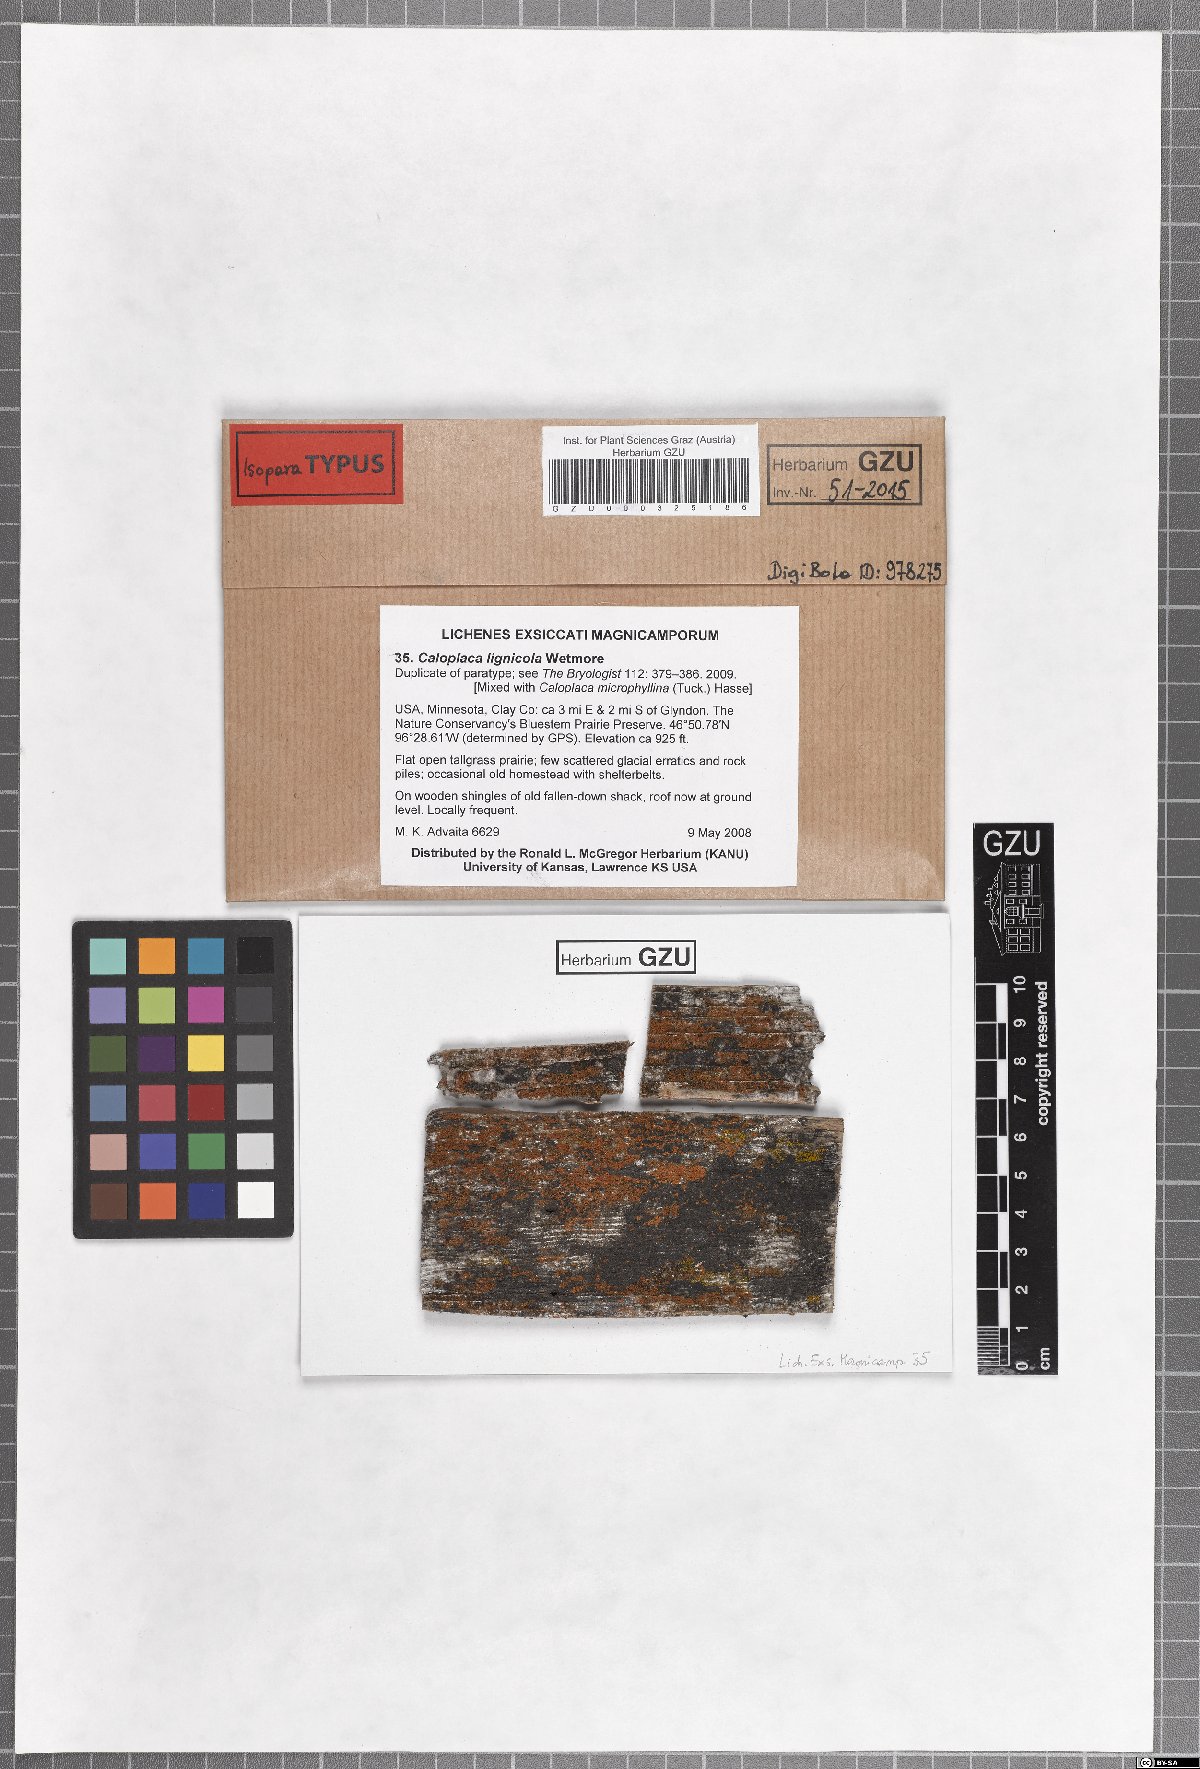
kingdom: Fungi
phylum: Ascomycota
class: Lecanoromycetes
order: Teloschistales
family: Teloschistaceae
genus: Caloplaca
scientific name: Caloplaca lignicola
